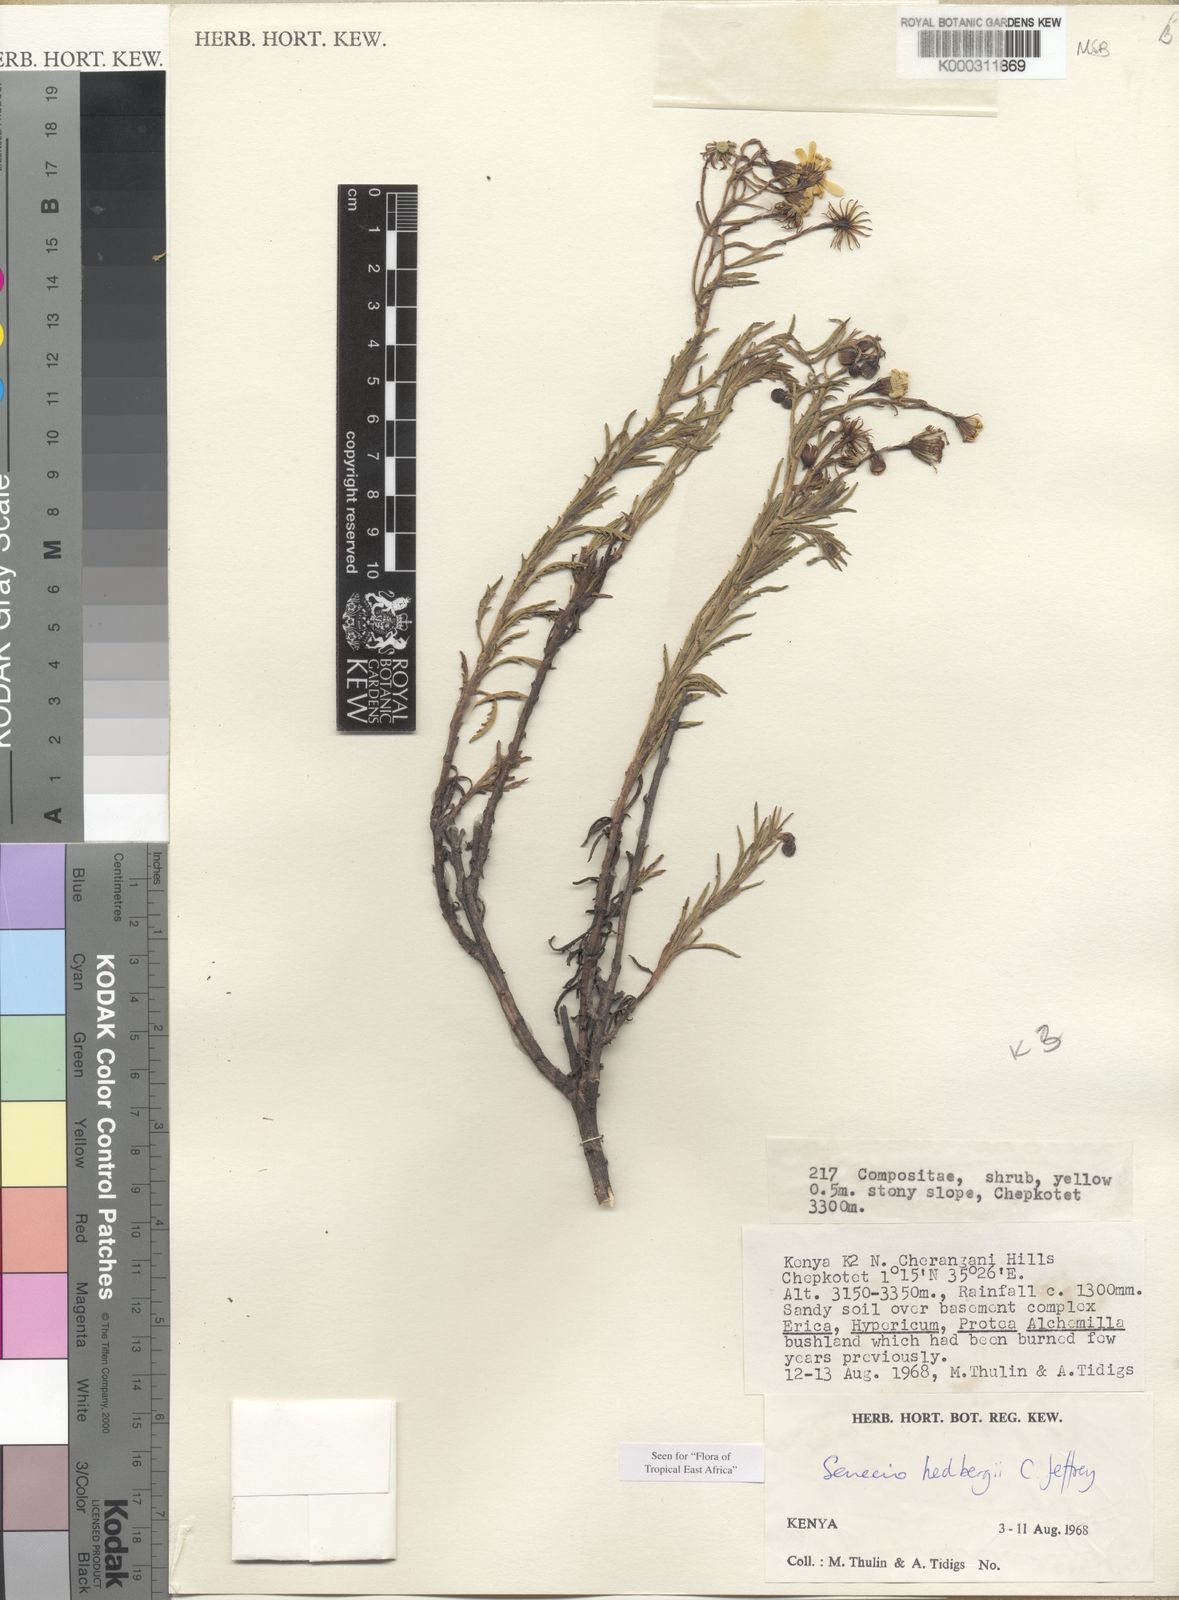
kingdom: Plantae
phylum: Tracheophyta
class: Magnoliopsida
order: Asterales
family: Asteraceae
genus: Senecio
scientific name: Senecio hedbergii
